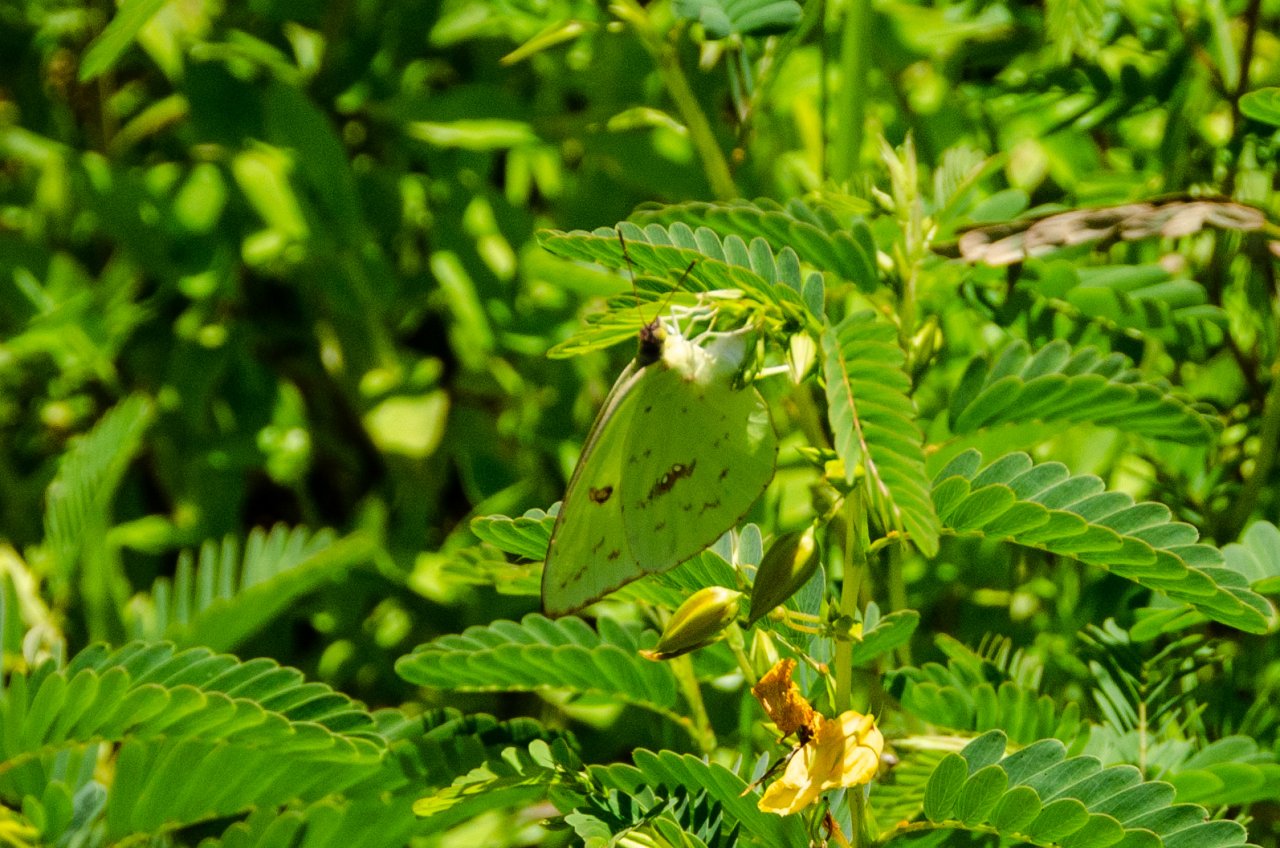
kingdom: Animalia
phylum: Arthropoda
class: Insecta
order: Lepidoptera
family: Pieridae
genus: Phoebis
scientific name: Phoebis sennae
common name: Cloudless Sulphur
